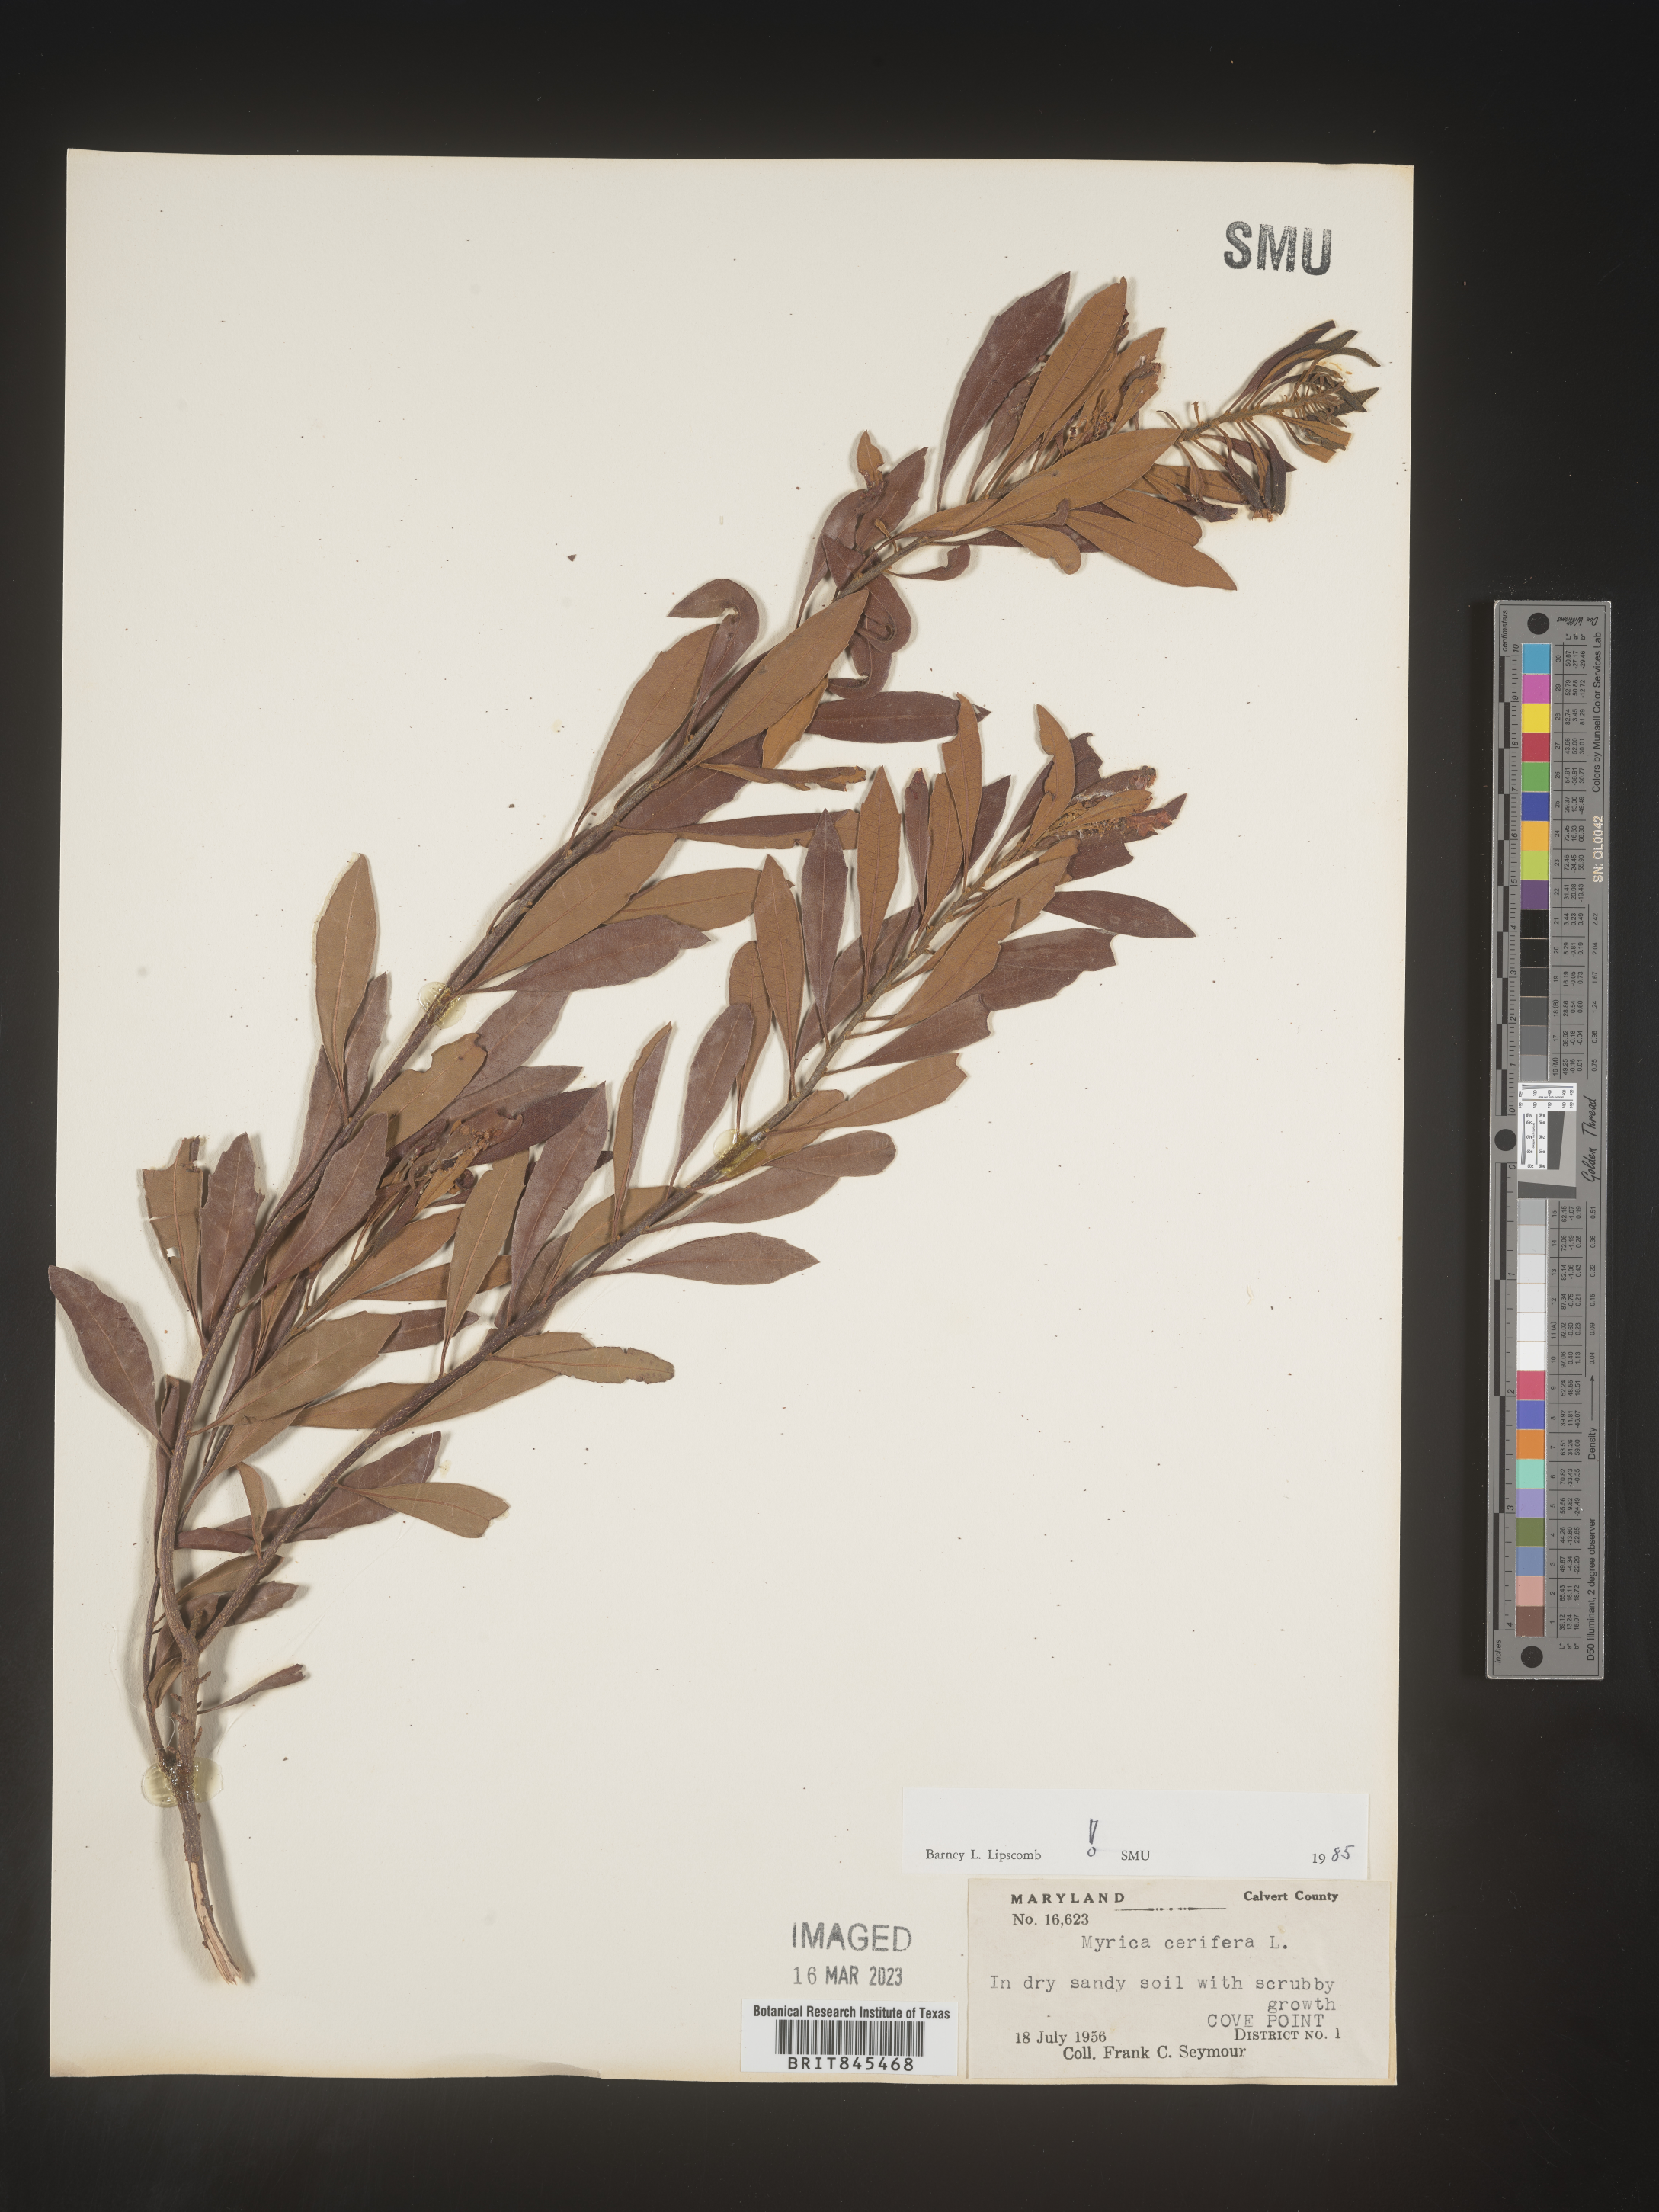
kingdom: Plantae
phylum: Tracheophyta
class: Magnoliopsida
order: Fagales
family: Myricaceae
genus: Morella
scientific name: Morella cerifera
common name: Wax myrtle
